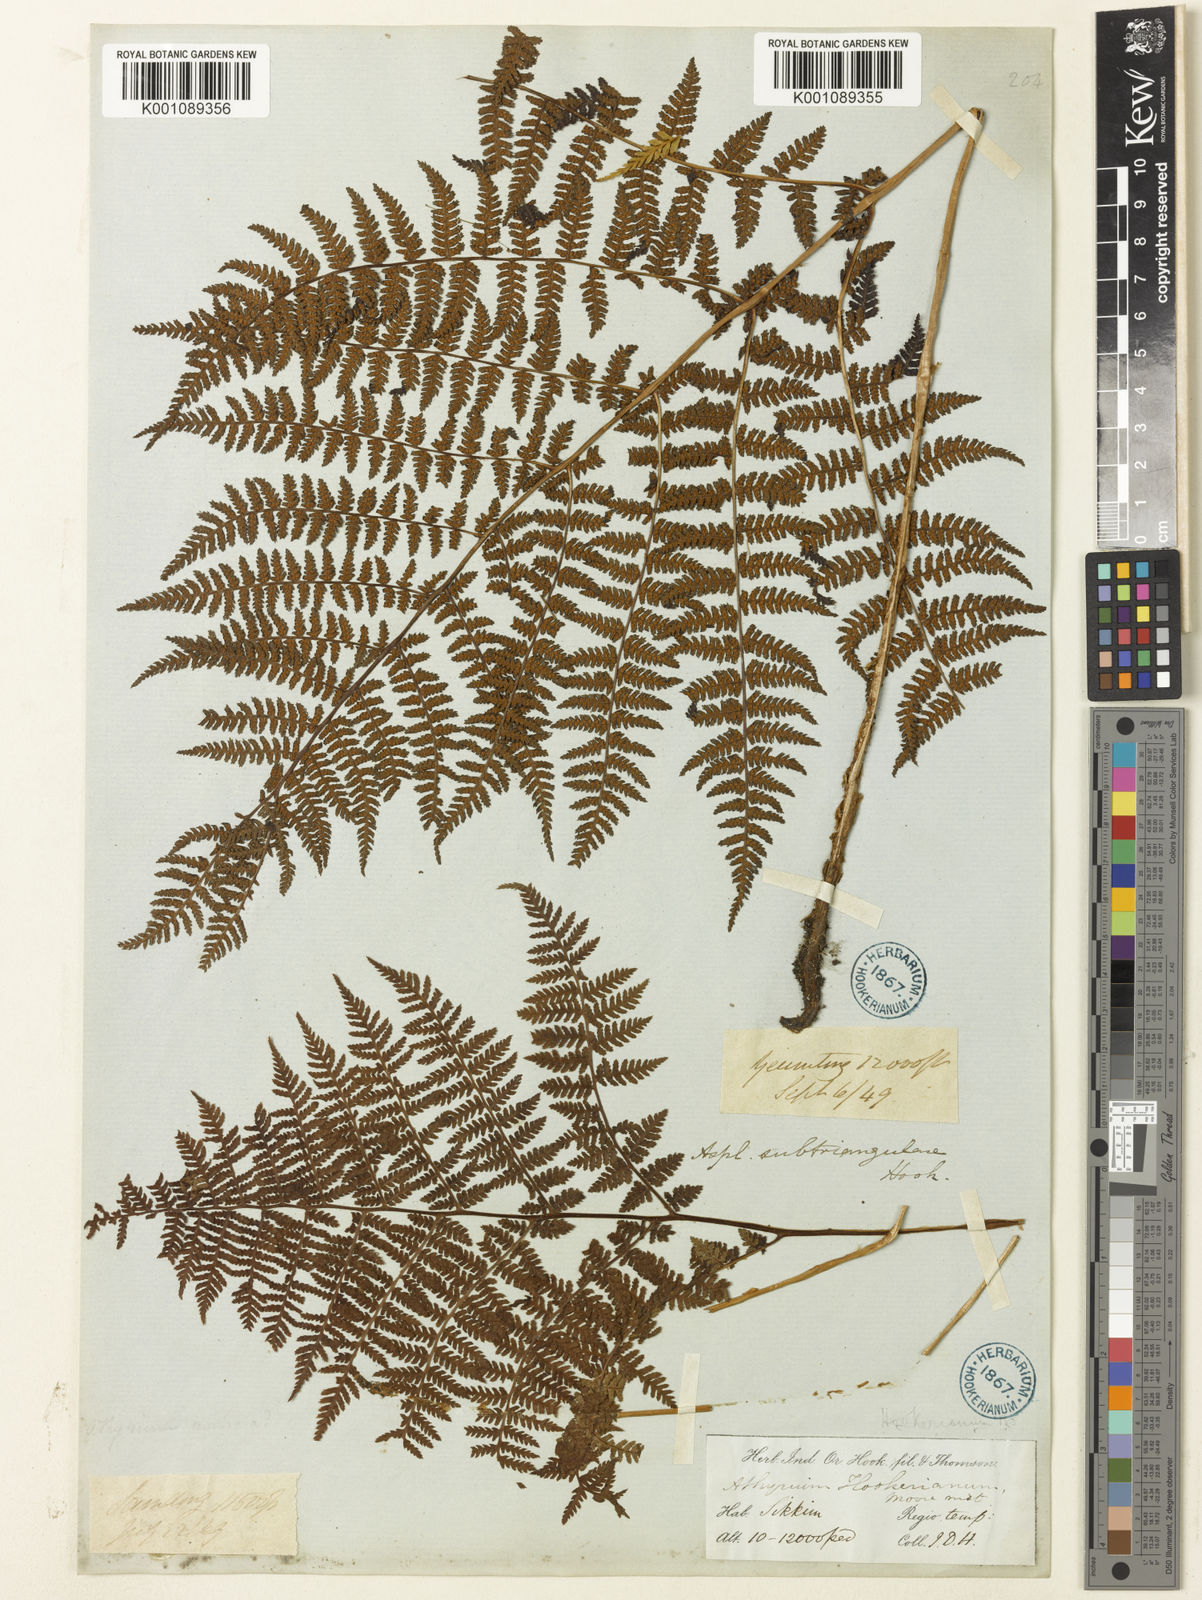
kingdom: Plantae
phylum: Tracheophyta
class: Polypodiopsida
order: Polypodiales
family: Athyriaceae
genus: Athyrium
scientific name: Athyrium spinulosum
